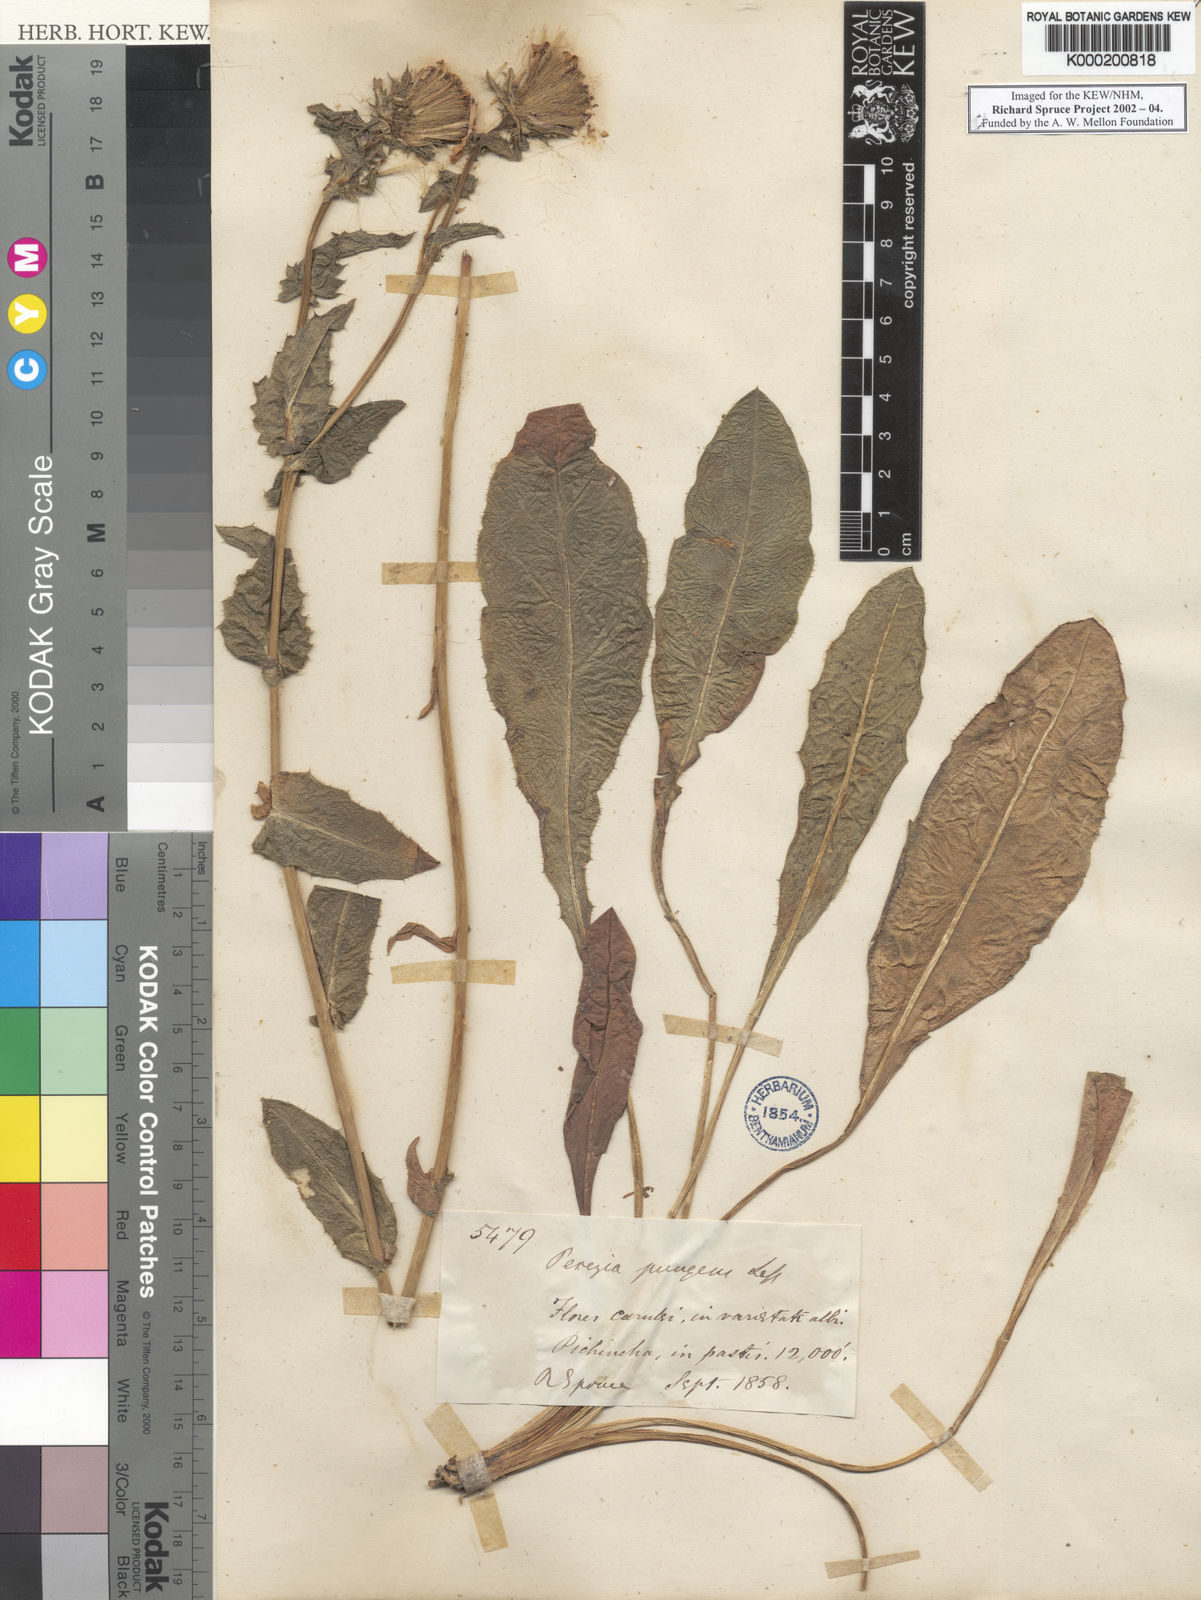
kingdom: Plantae
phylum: Tracheophyta
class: Magnoliopsida
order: Asterales
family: Asteraceae
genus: Perezia
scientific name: Perezia pungens
